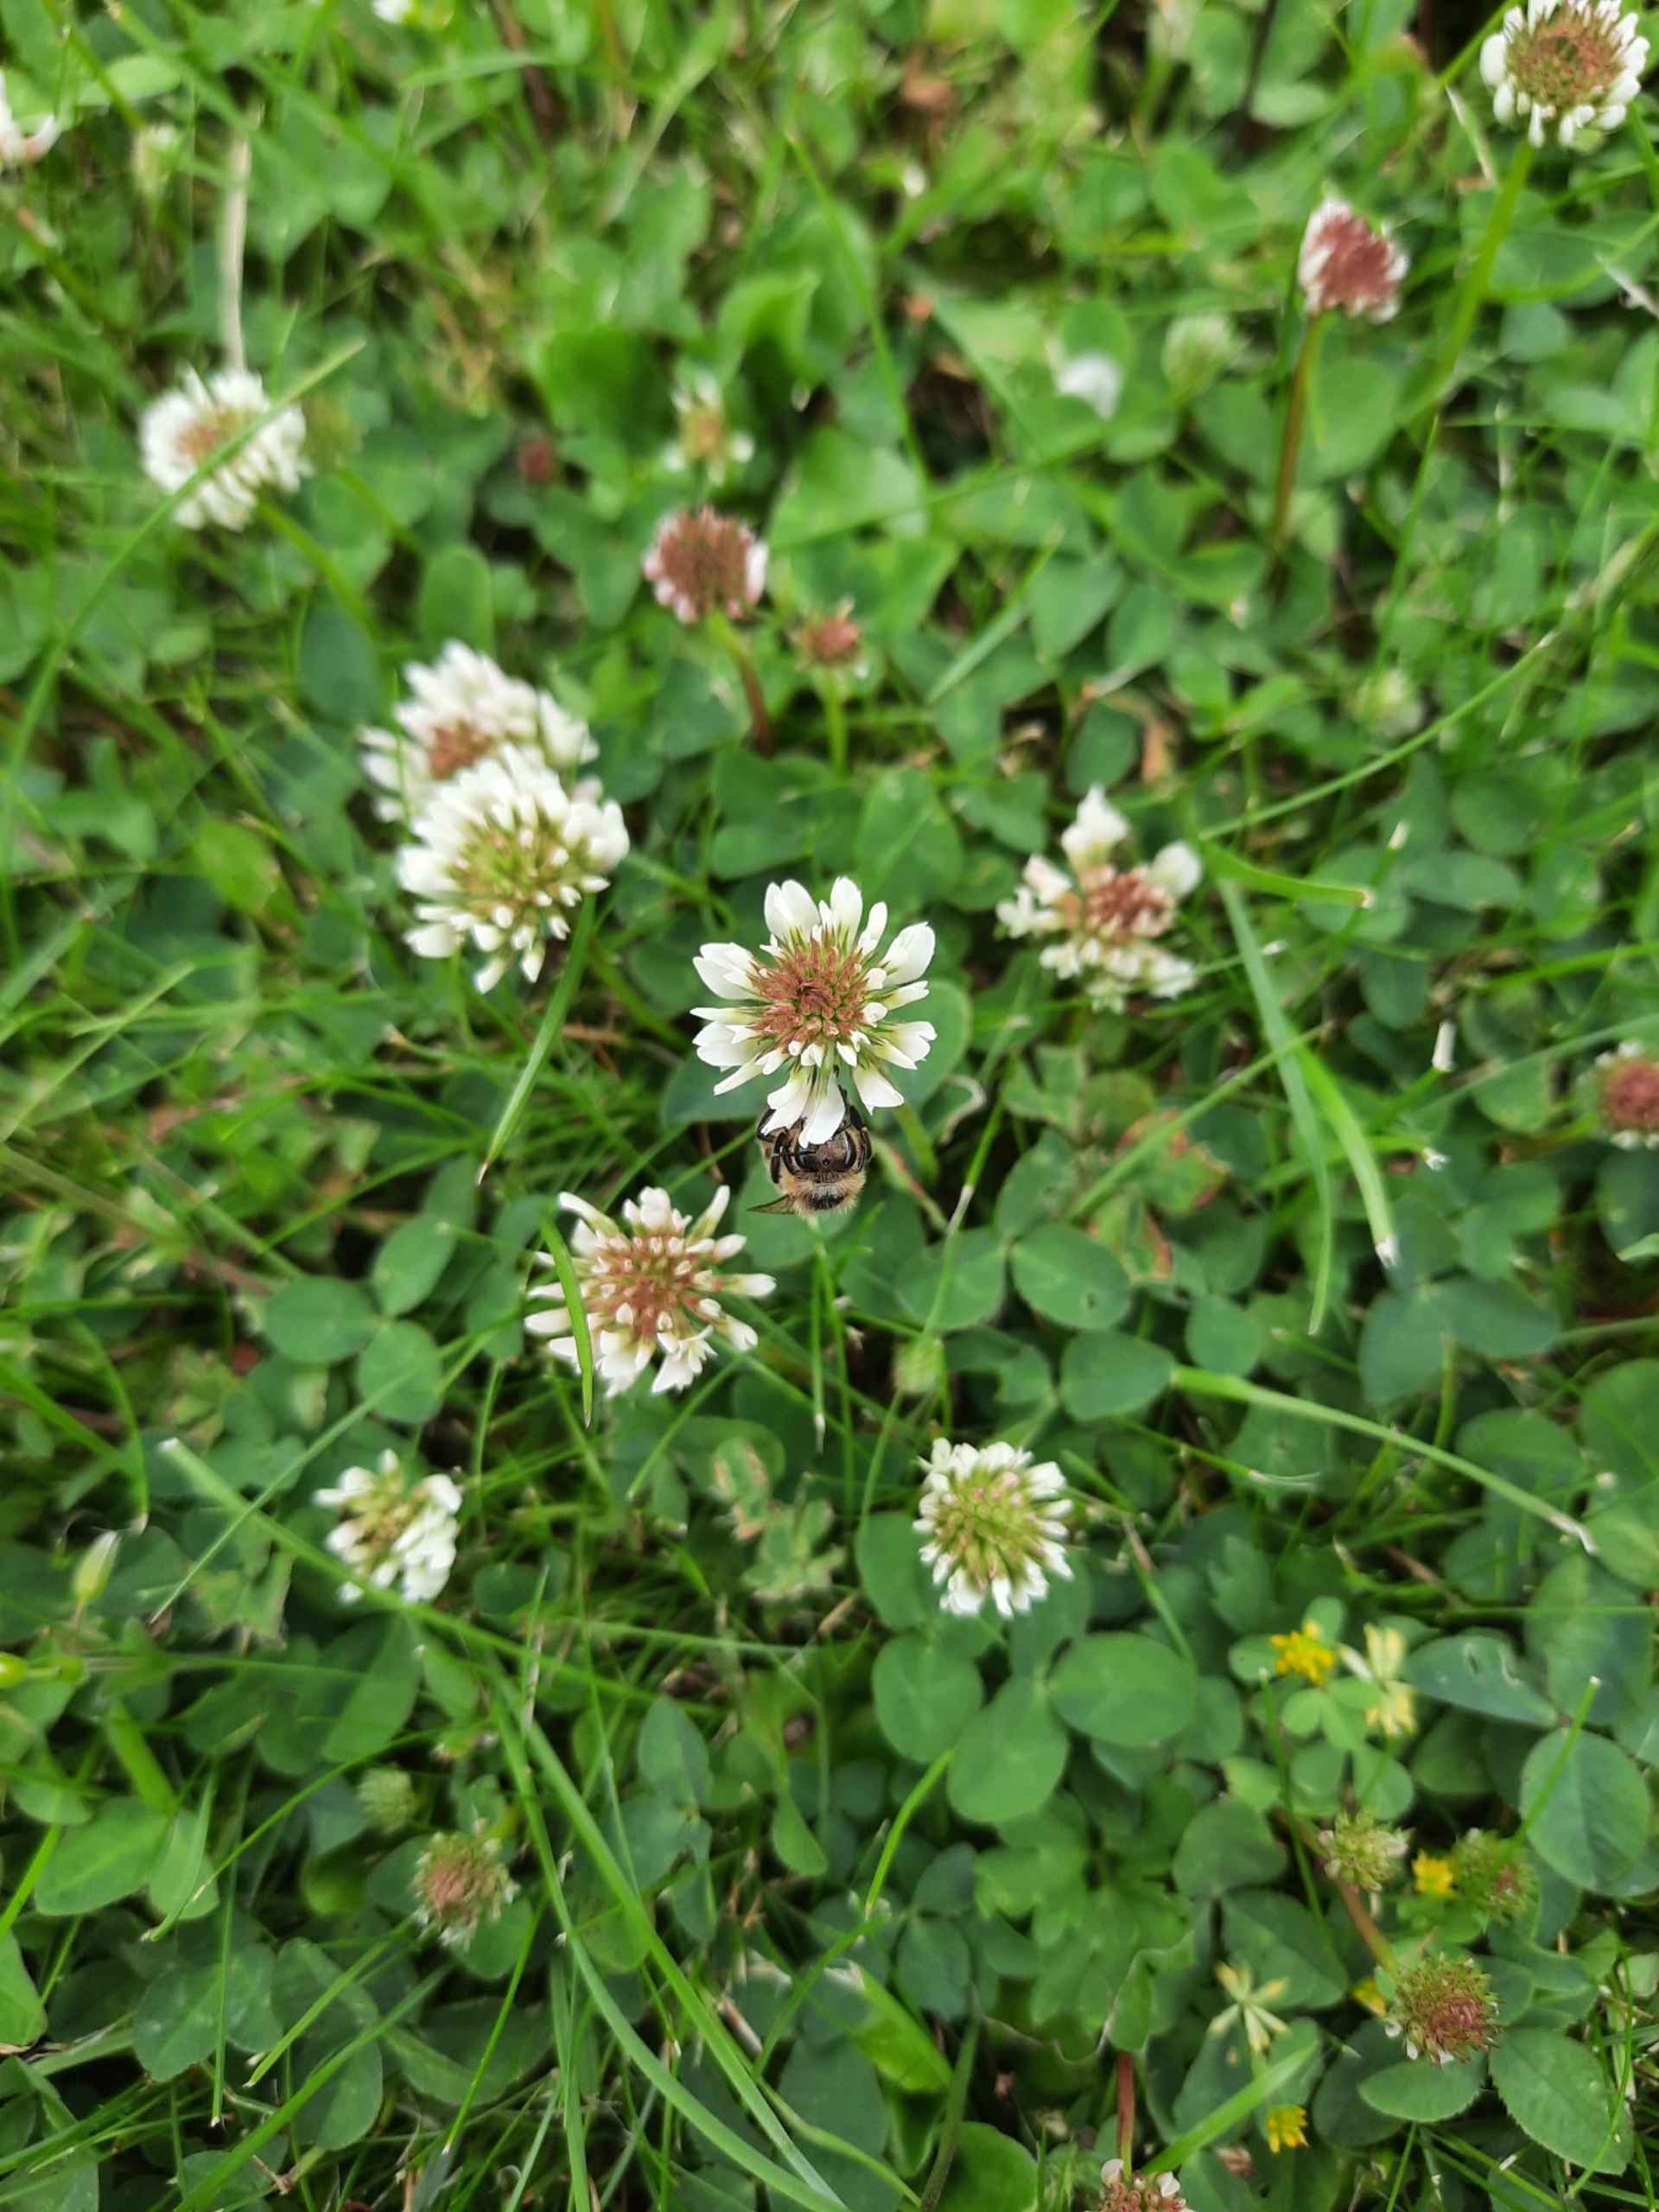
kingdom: Animalia
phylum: Arthropoda
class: Insecta
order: Hymenoptera
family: Apidae
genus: Apis
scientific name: Apis mellifera
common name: Honningbi
